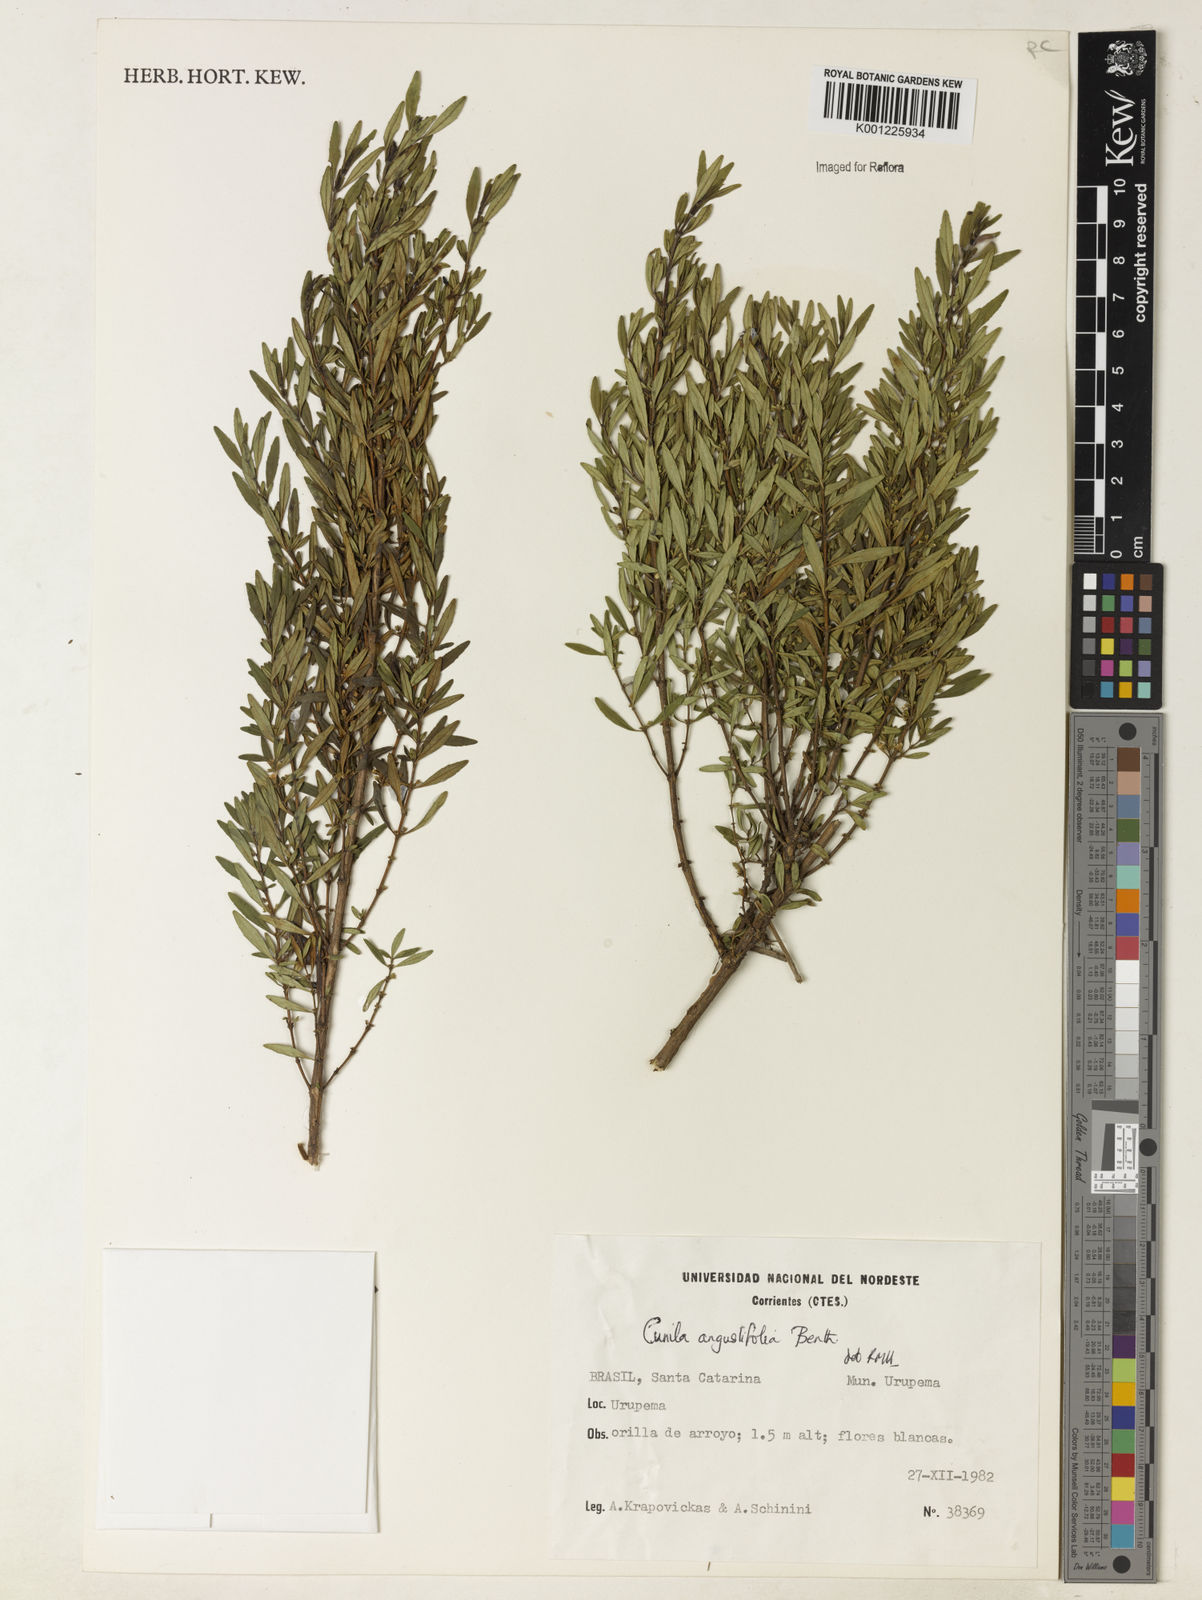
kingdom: Plantae
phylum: Tracheophyta
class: Magnoliopsida
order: Lamiales
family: Lamiaceae
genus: Cunila
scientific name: Cunila angustifolia
